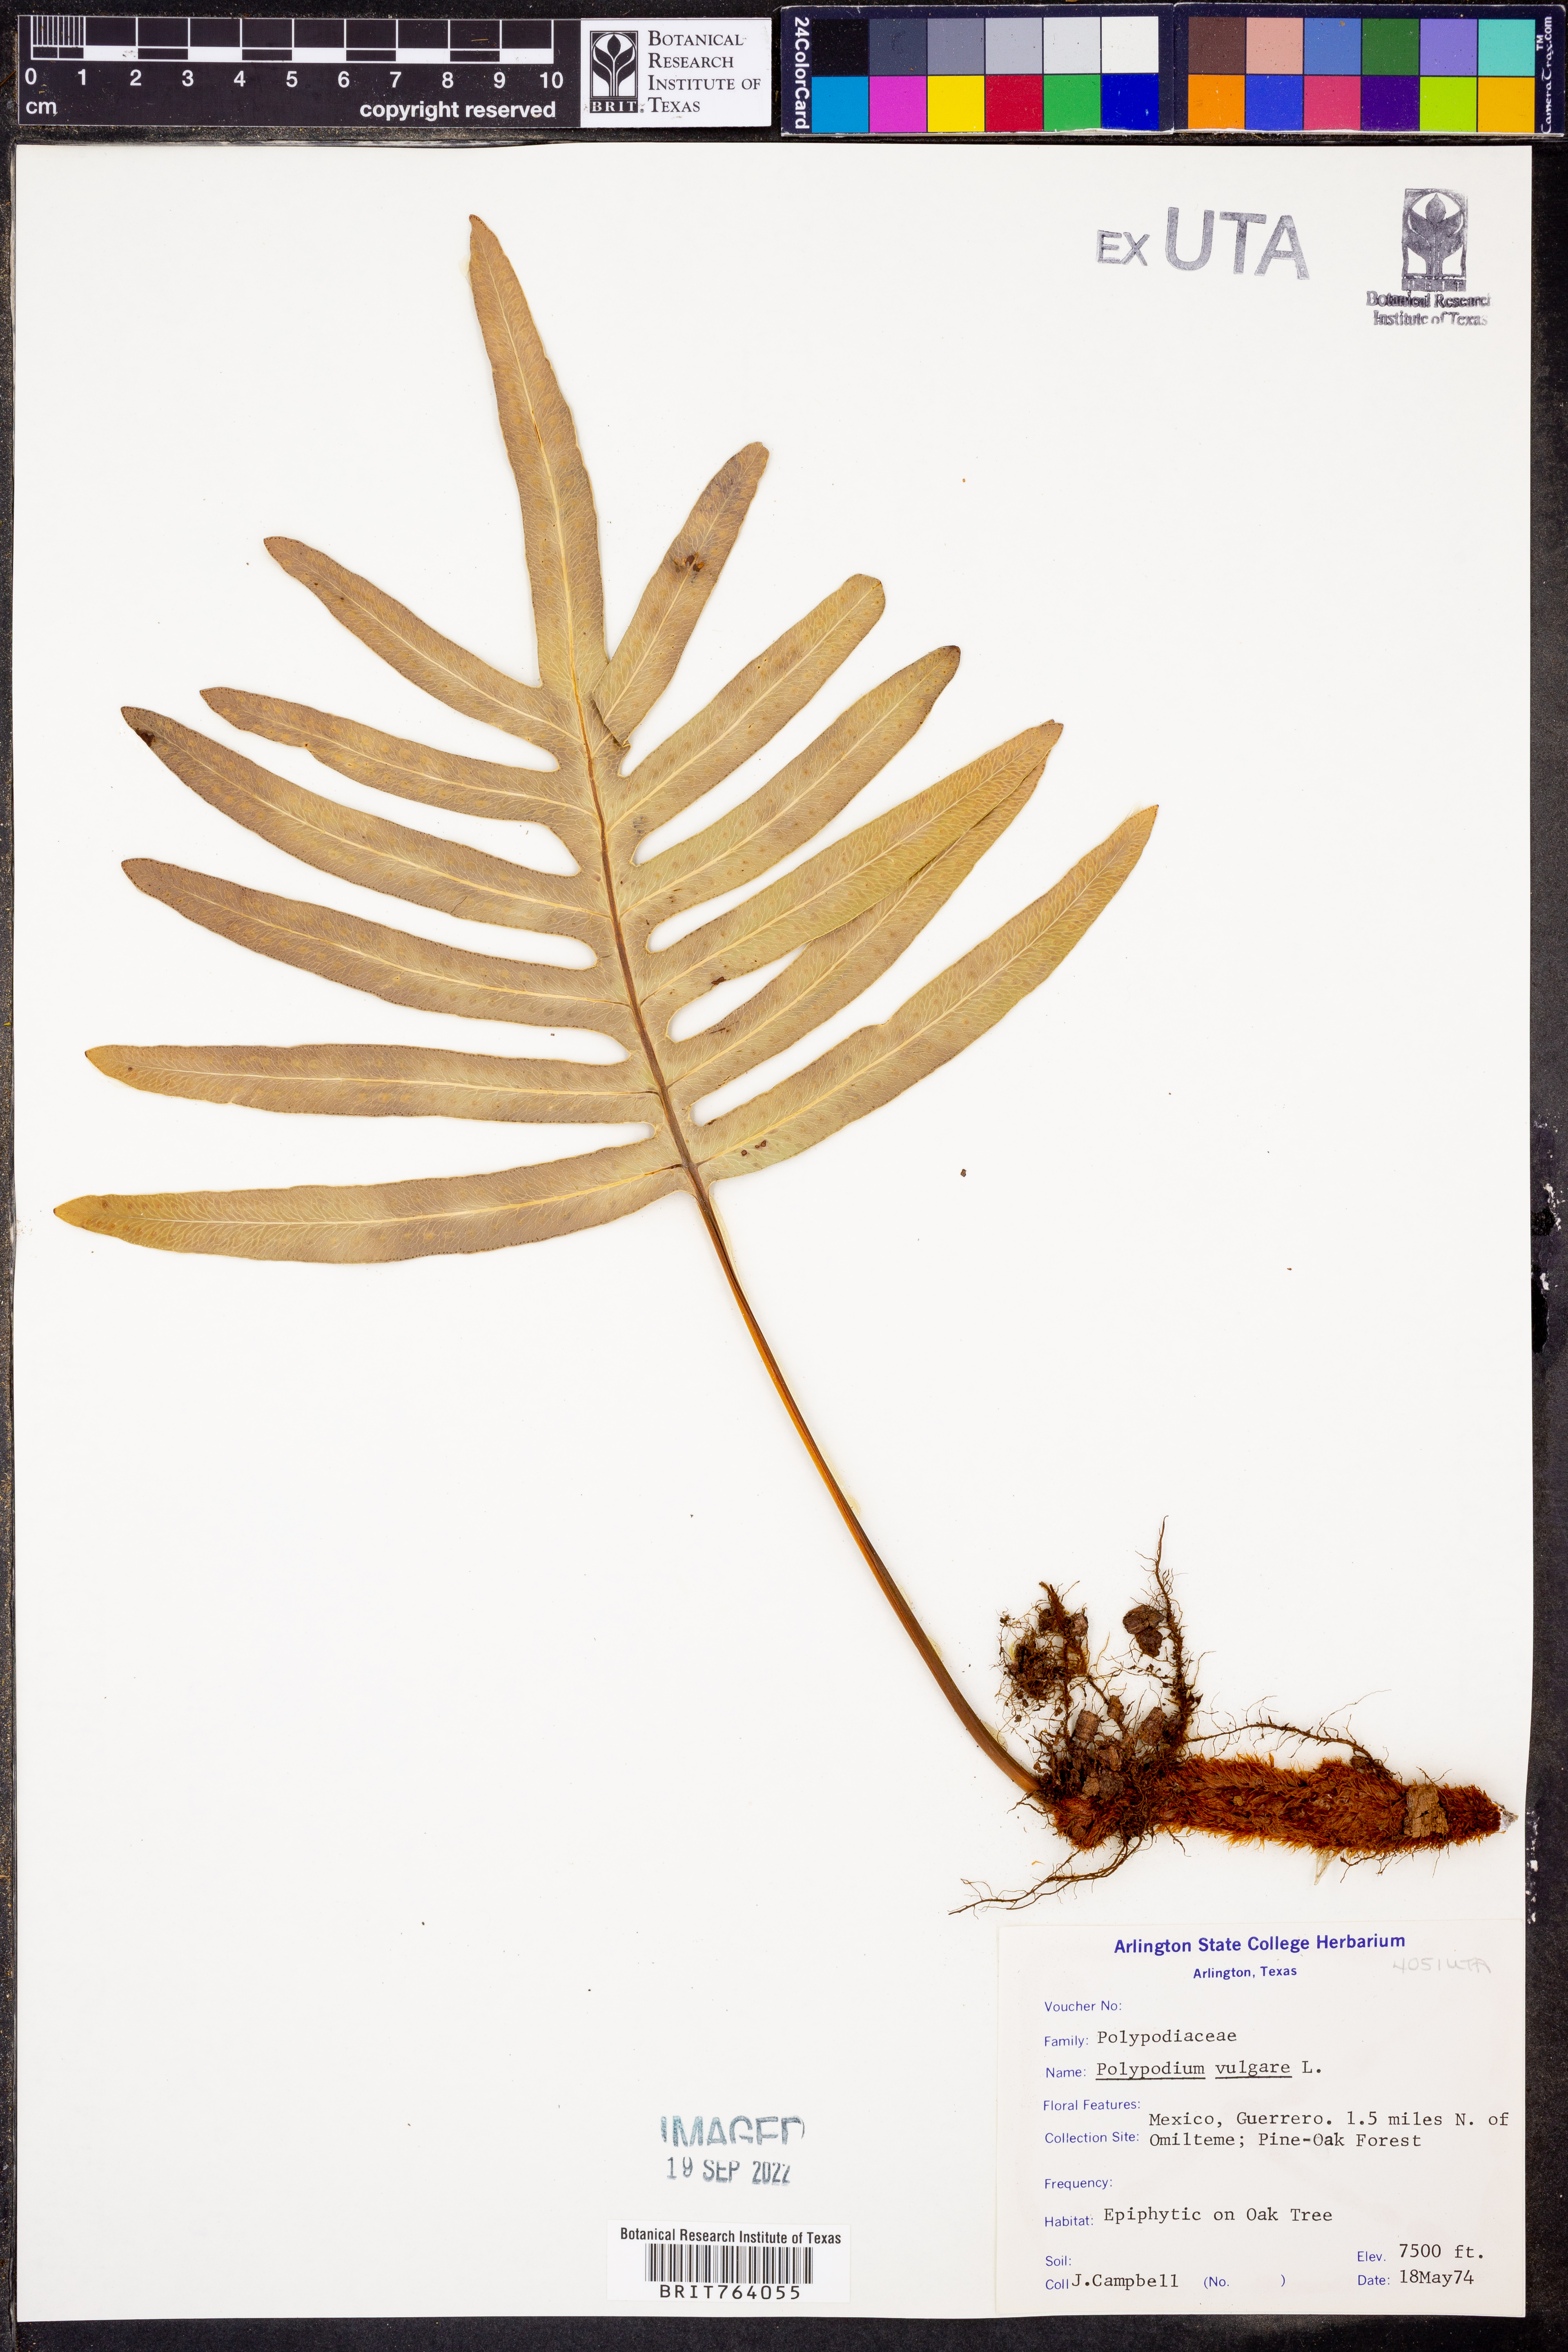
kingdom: Plantae
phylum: Tracheophyta
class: Polypodiopsida
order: Polypodiales
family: Polypodiaceae
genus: Polypodium
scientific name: Polypodium vulgare
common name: Common polypody
